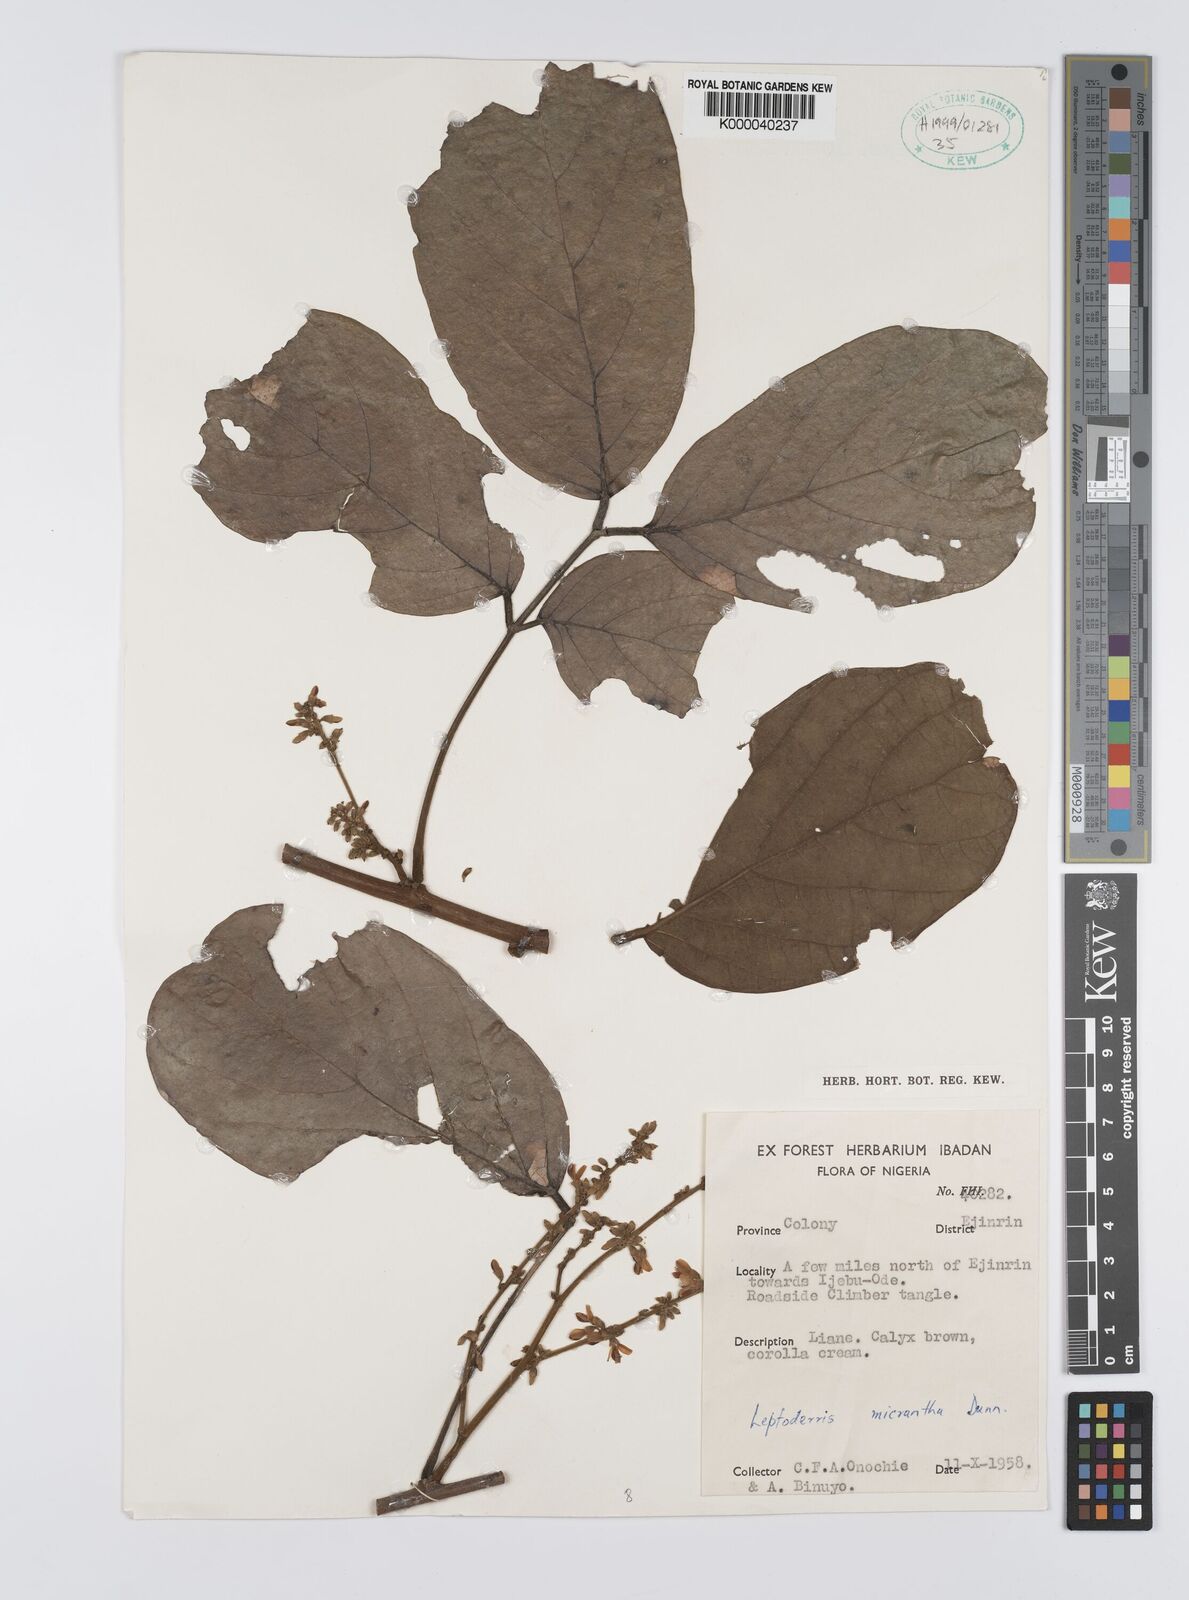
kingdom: Plantae
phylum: Tracheophyta
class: Magnoliopsida
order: Fabales
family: Fabaceae
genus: Leptoderris
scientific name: Leptoderris micrantha
